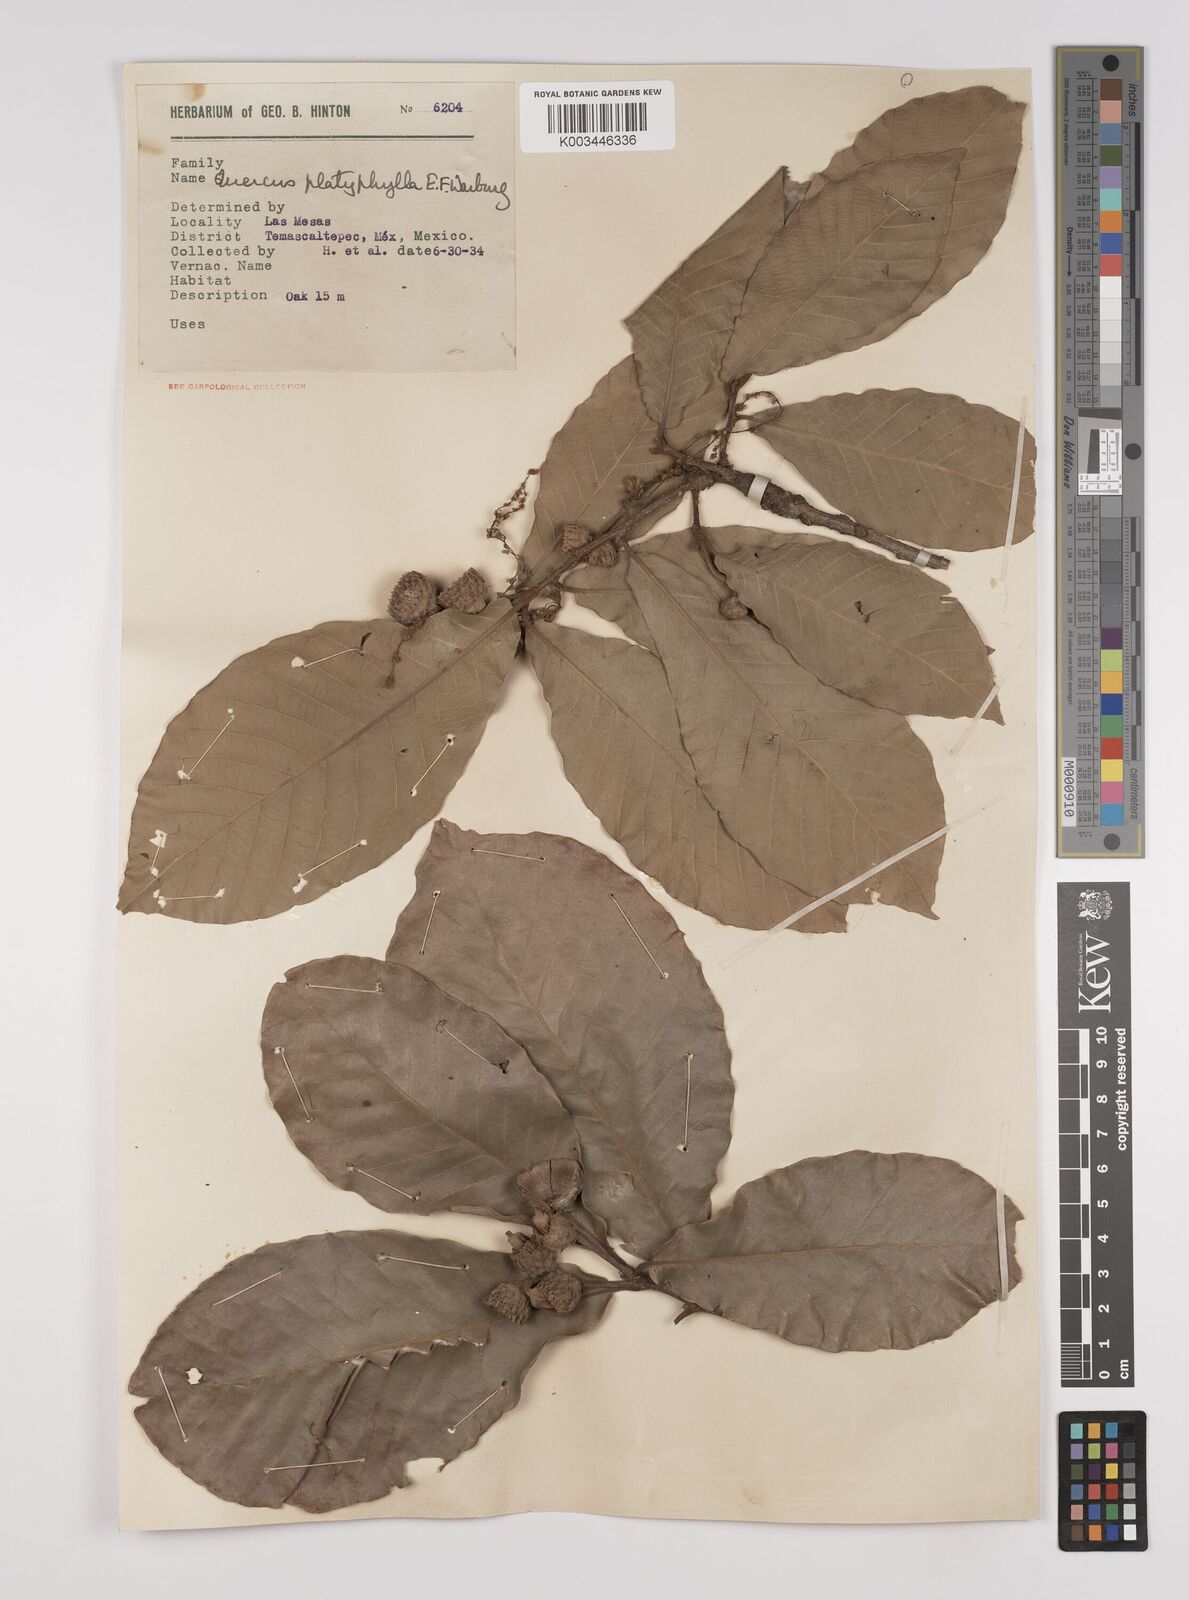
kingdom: Plantae
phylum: Tracheophyta
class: Magnoliopsida
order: Fagales
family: Fagaceae
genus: Quercus
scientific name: Quercus
